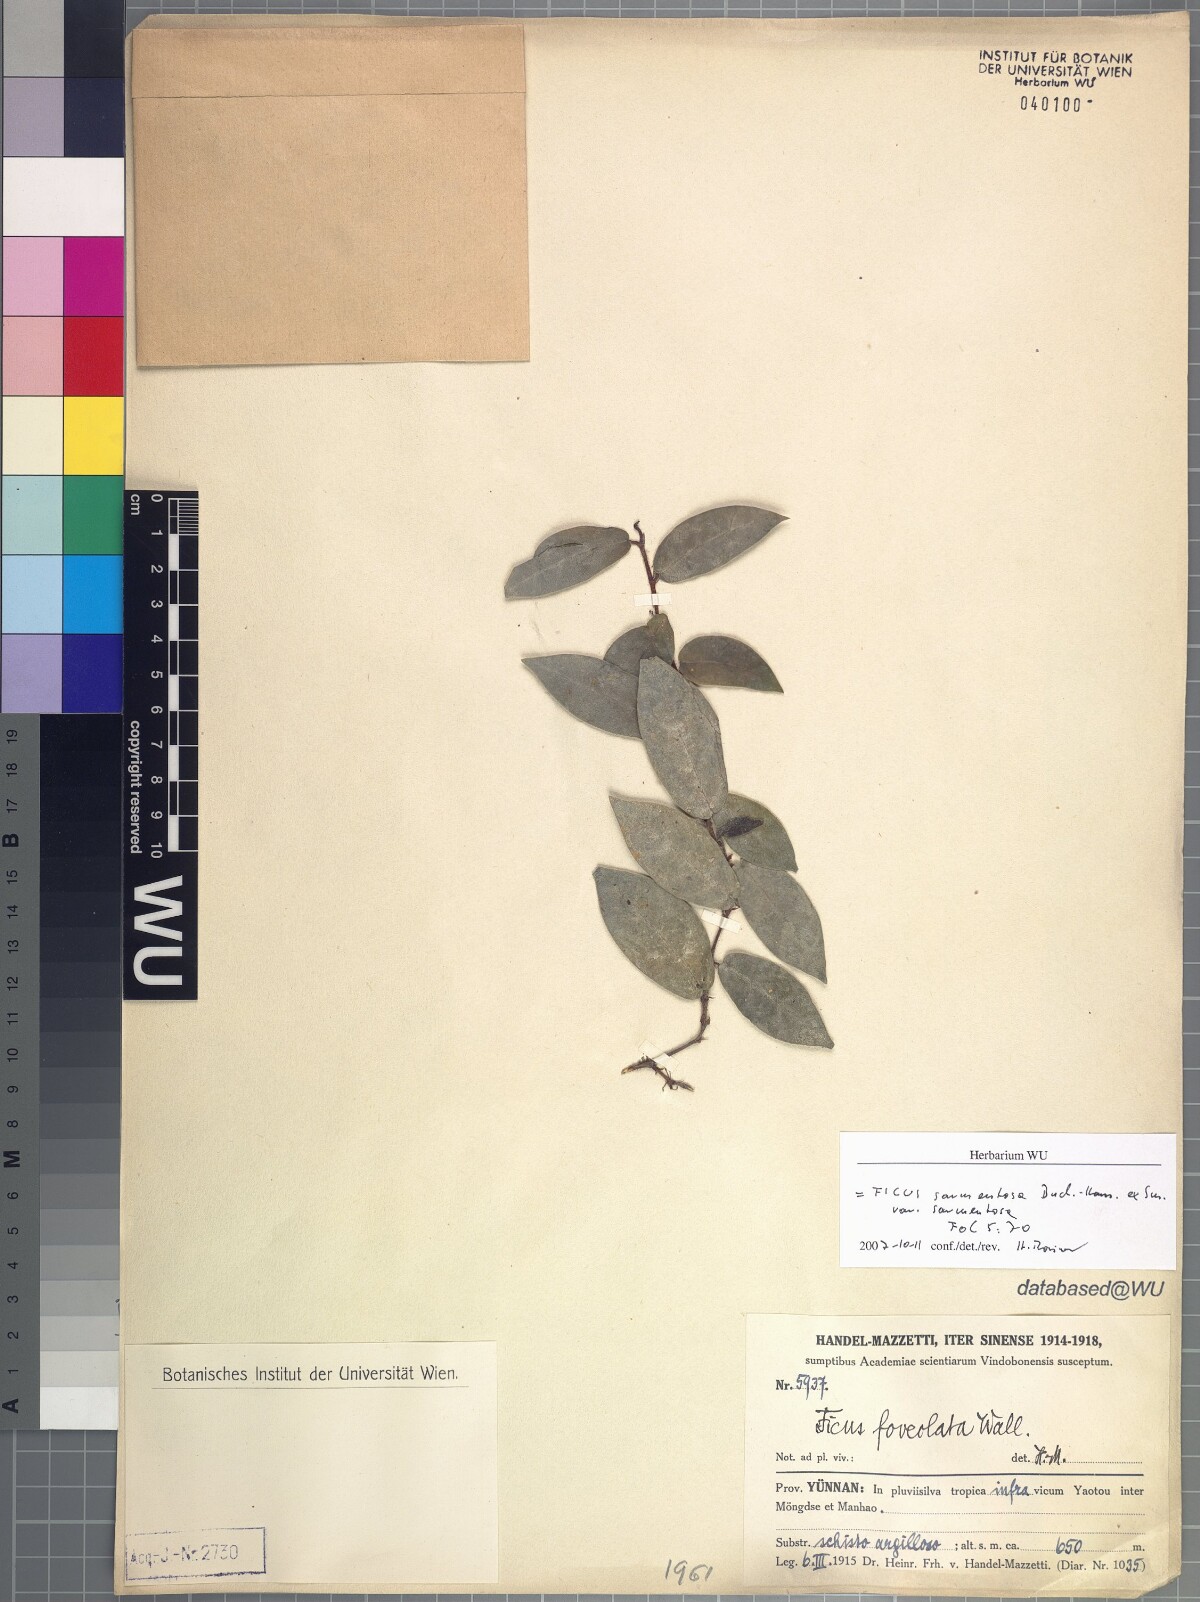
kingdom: Plantae
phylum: Tracheophyta
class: Magnoliopsida
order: Rosales
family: Moraceae
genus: Ficus
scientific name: Ficus sarmentosa
